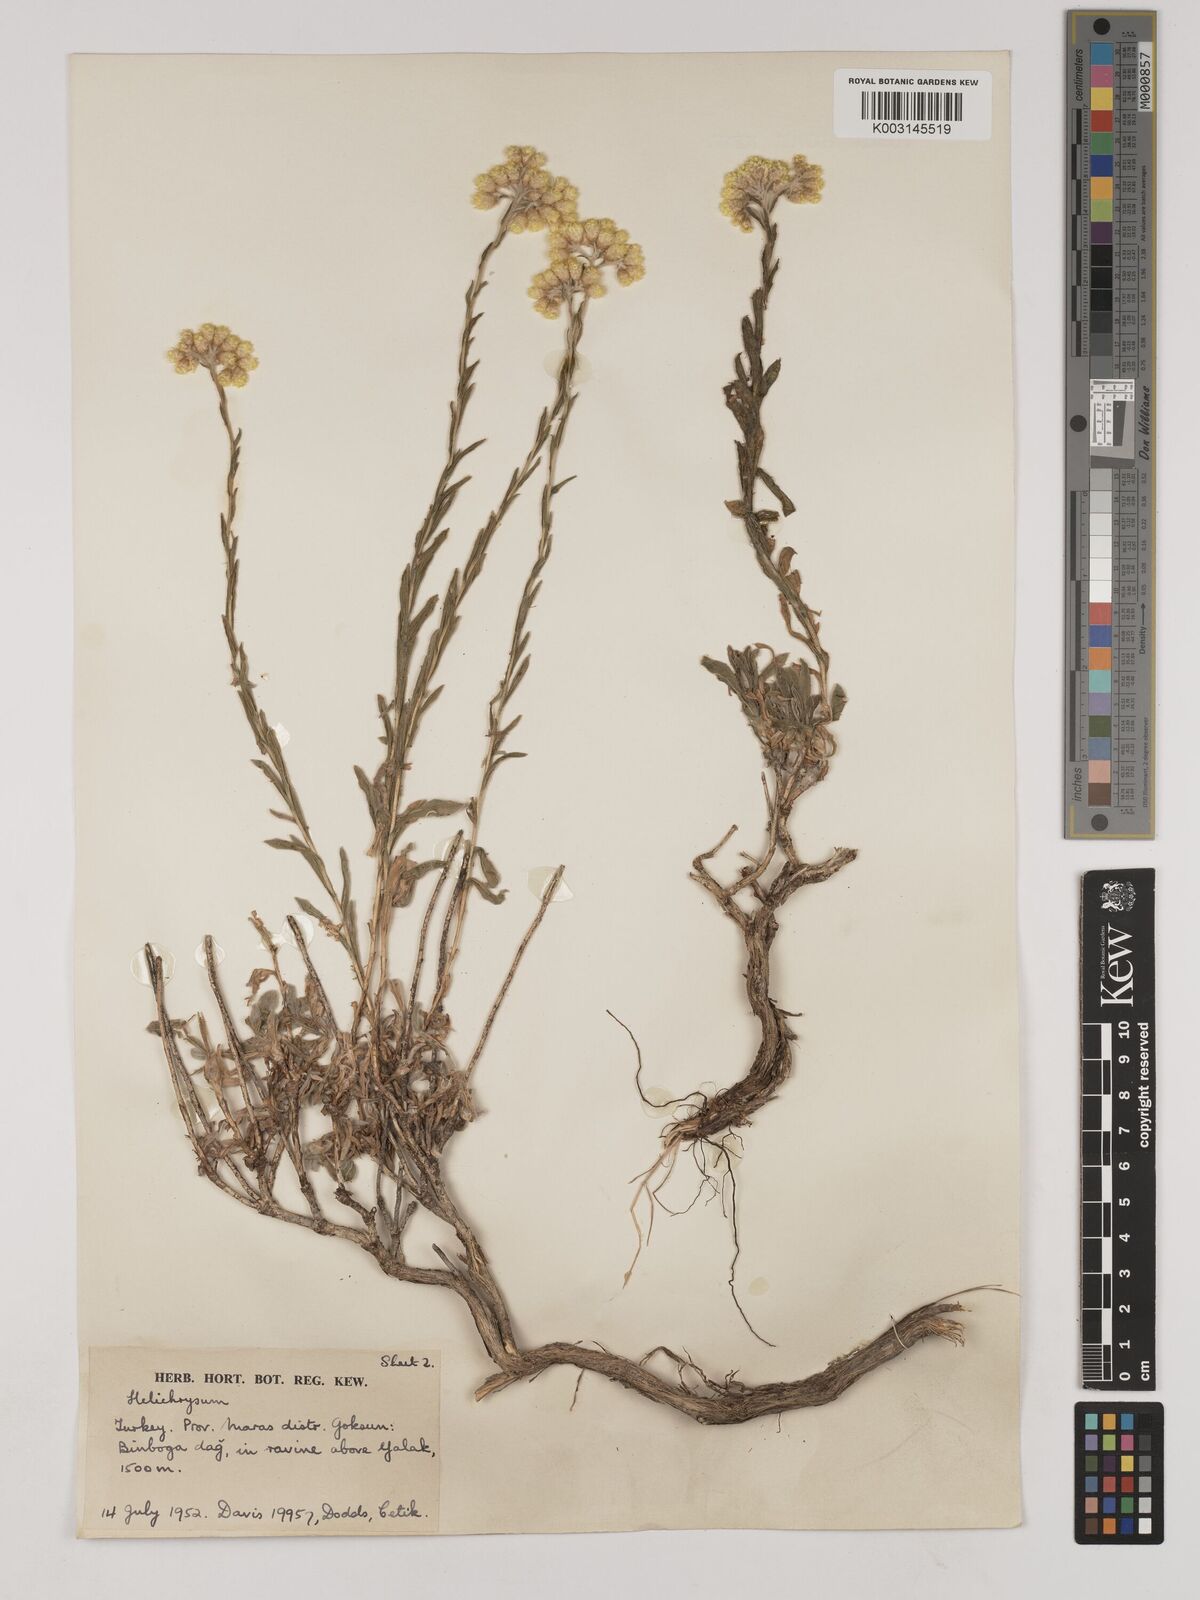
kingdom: Plantae
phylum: Tracheophyta
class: Magnoliopsida
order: Asterales
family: Asteraceae
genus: Helichrysum
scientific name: Helichrysum araxinum
